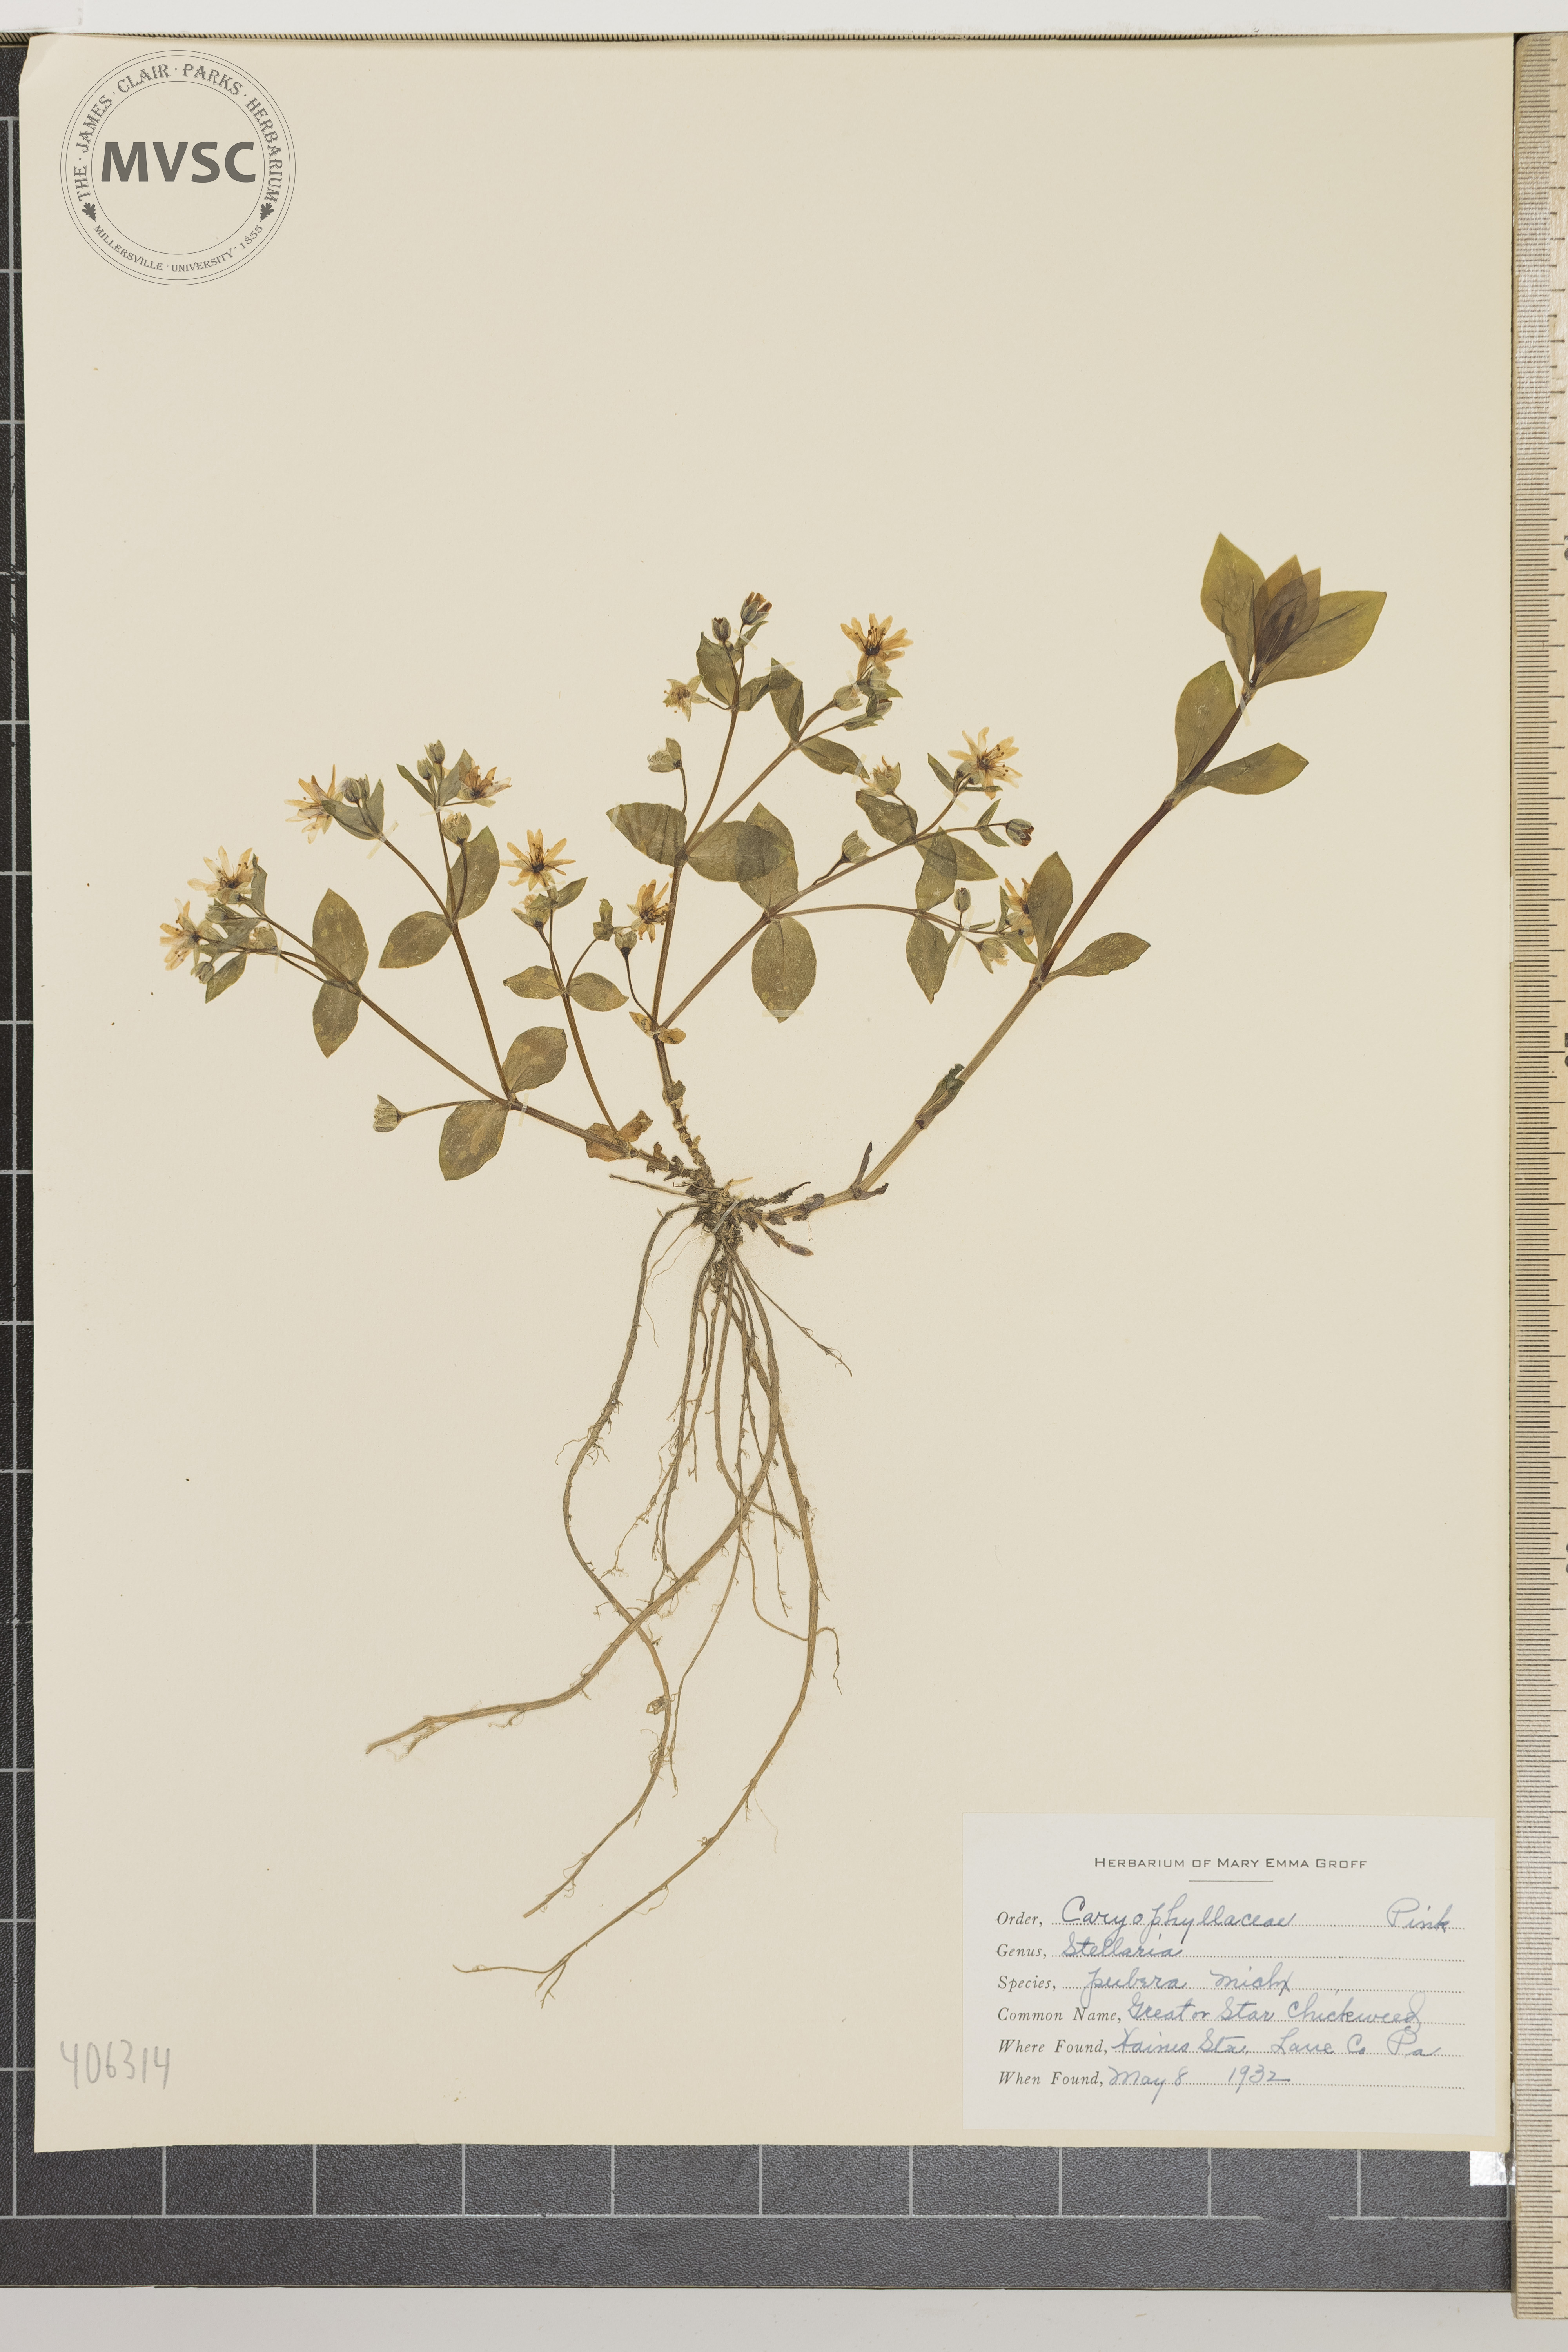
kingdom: Plantae
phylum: Tracheophyta
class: Magnoliopsida
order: Caryophyllales
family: Caryophyllaceae
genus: Stellaria
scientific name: Stellaria pubera
